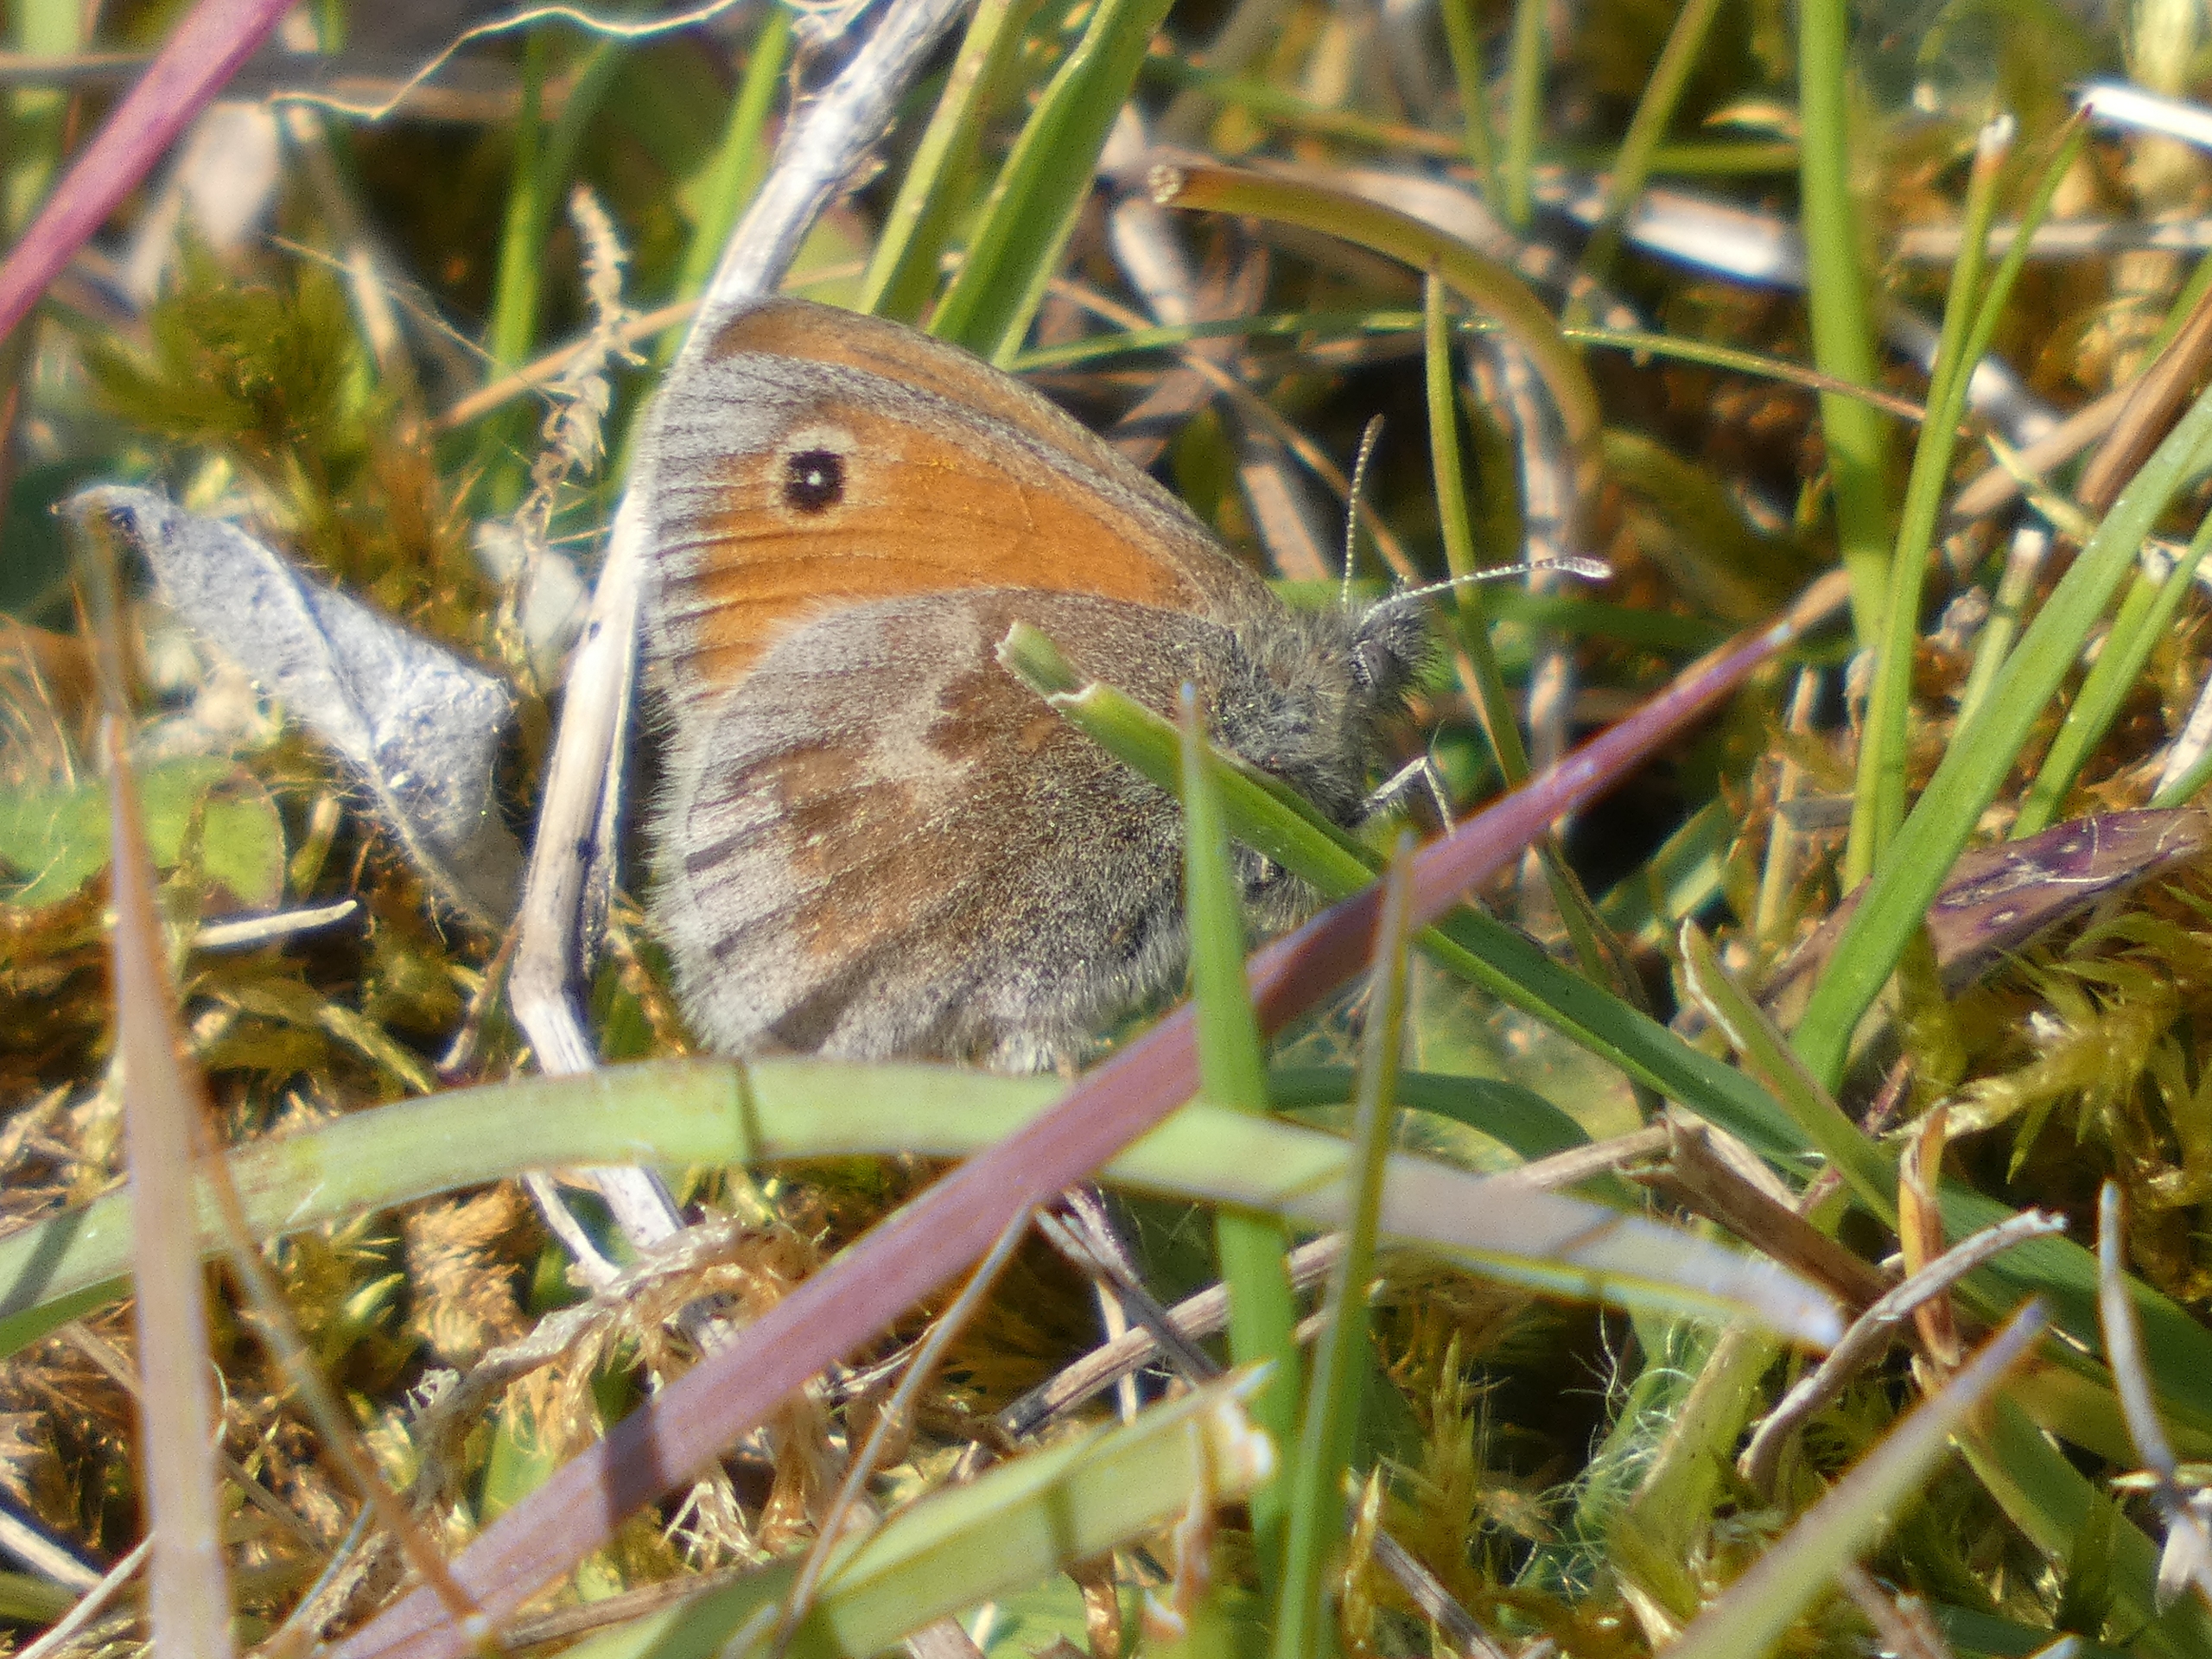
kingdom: Animalia
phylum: Arthropoda
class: Insecta
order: Lepidoptera
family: Nymphalidae
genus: Coenonympha
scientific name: Coenonympha pamphilus
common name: Okkergul randøje
